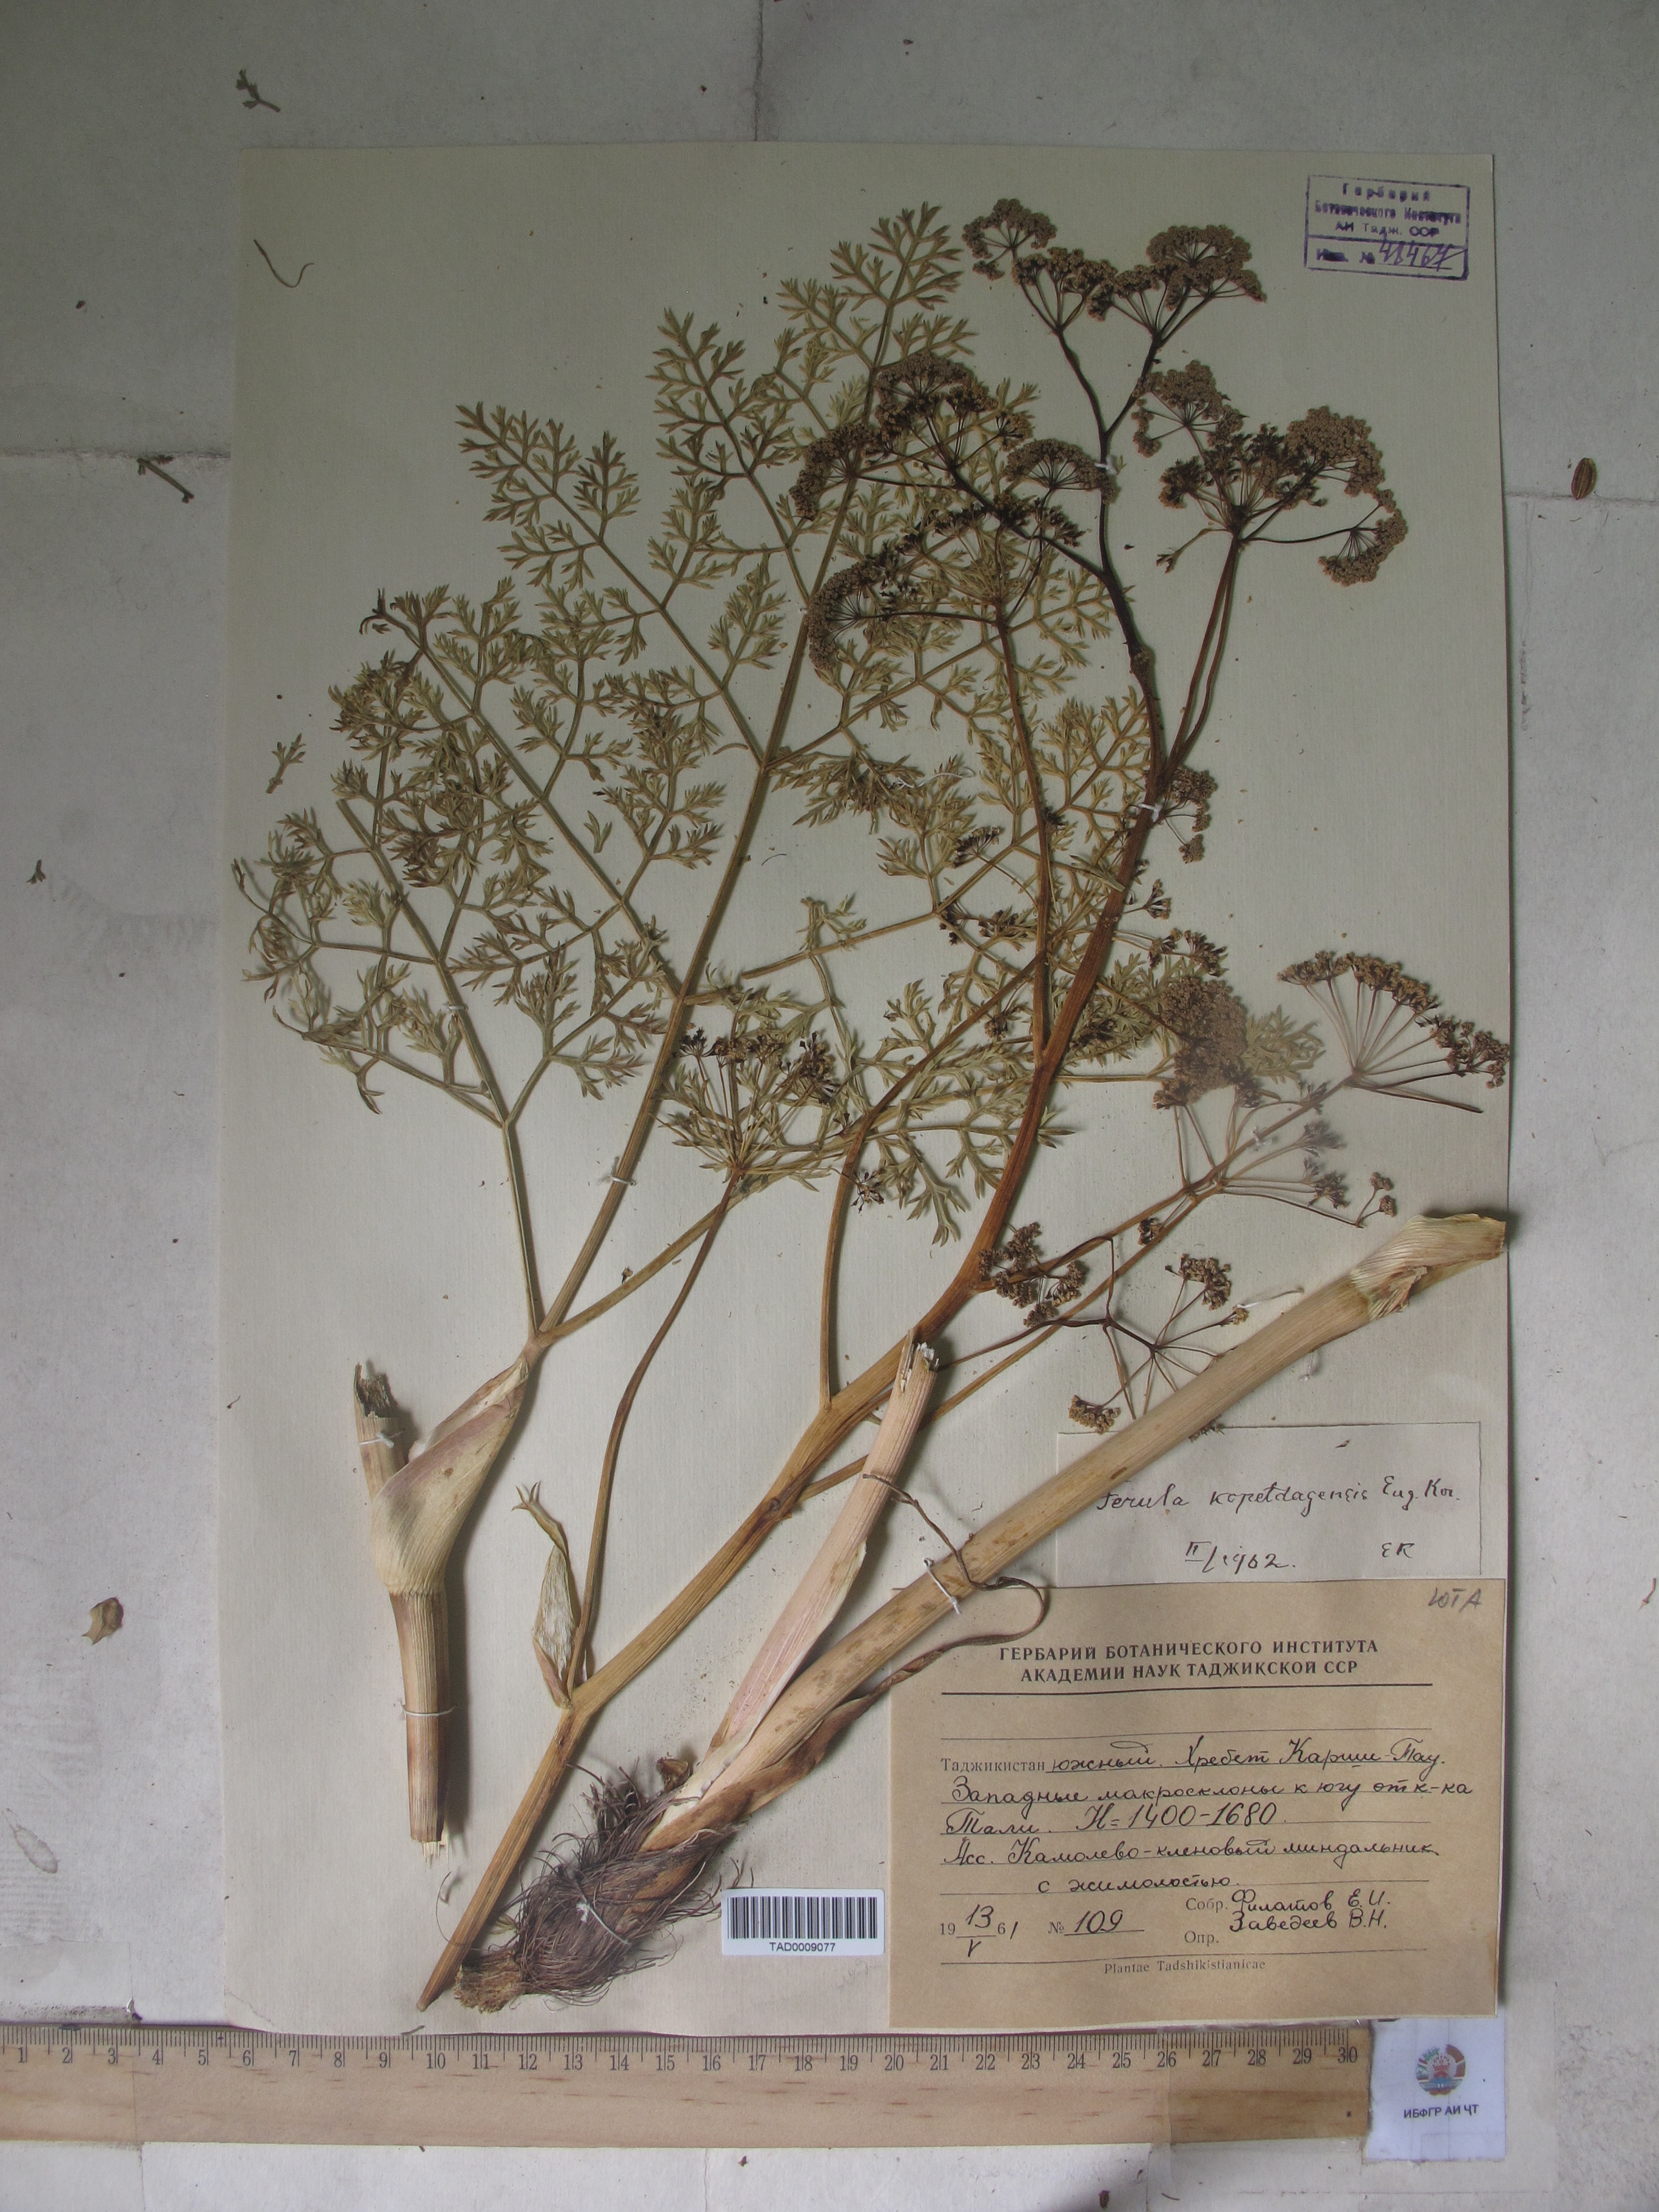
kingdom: Plantae
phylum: Tracheophyta
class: Magnoliopsida
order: Apiales
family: Apiaceae
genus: Ferula
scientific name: Ferula ovina
